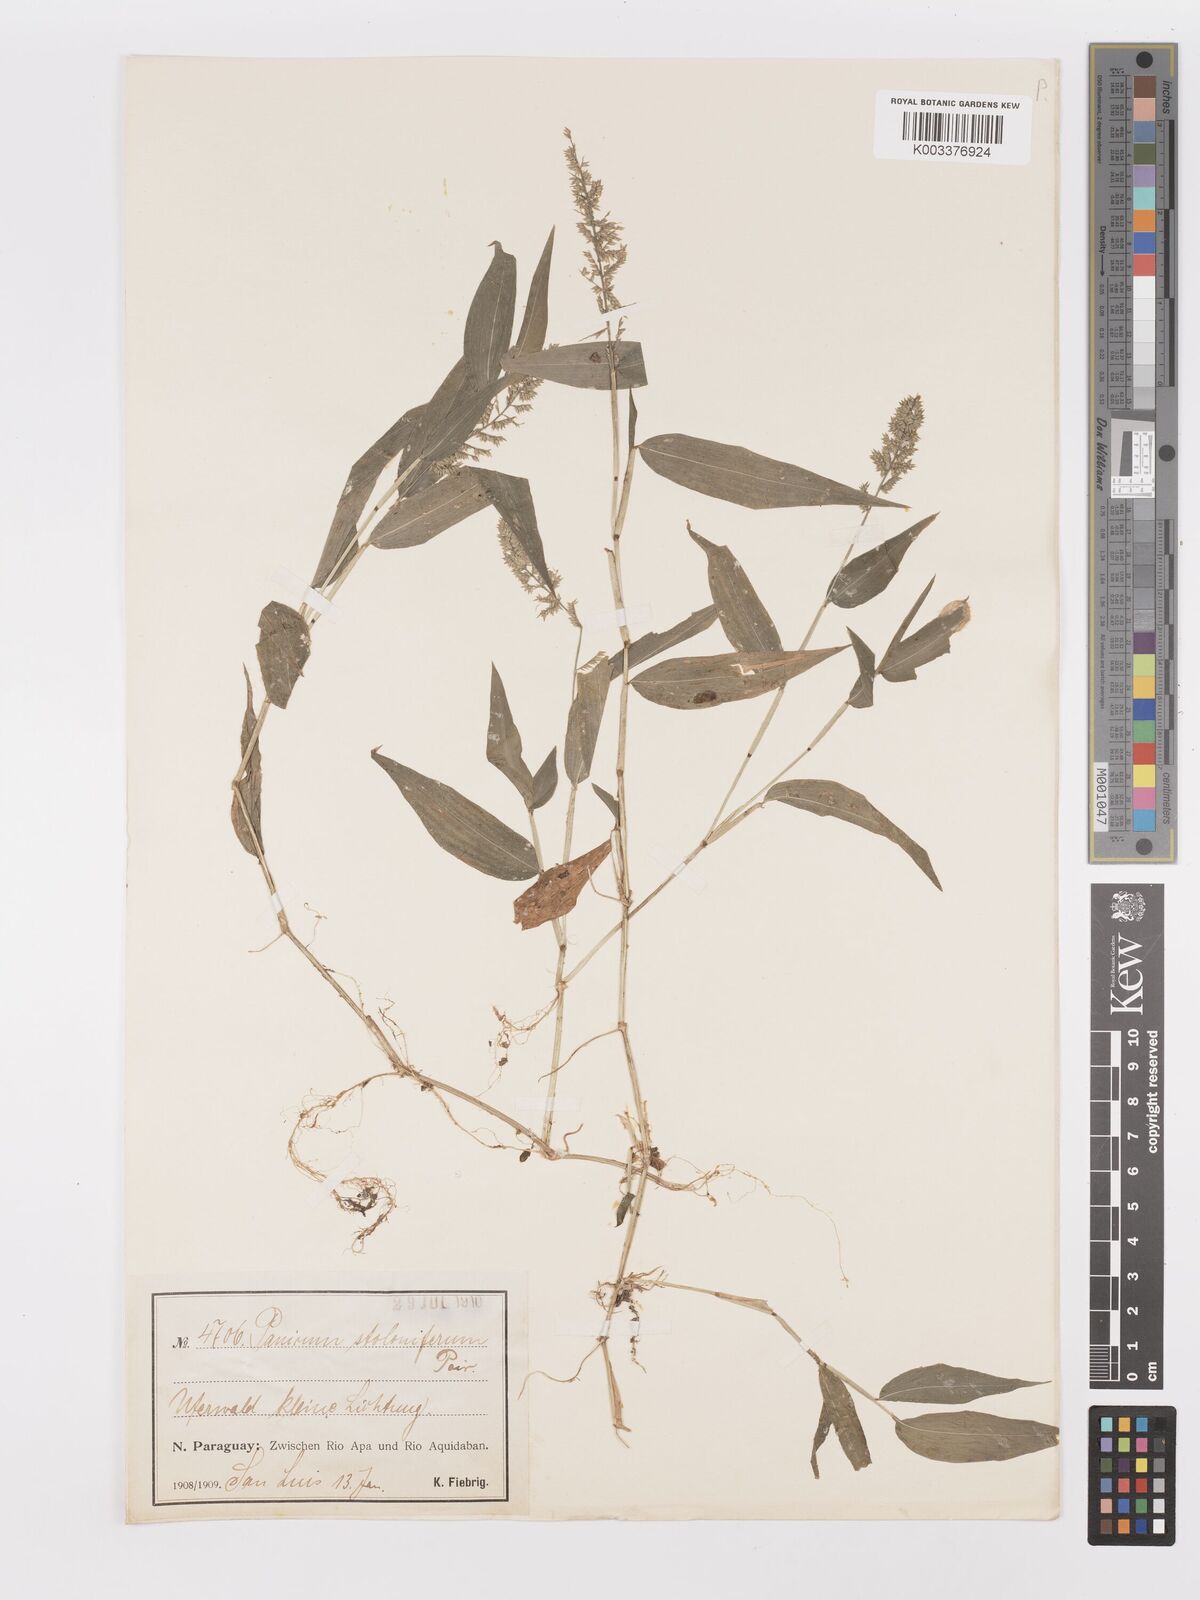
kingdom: Plantae
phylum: Tracheophyta
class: Liliopsida
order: Poales
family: Poaceae
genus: Ocellochloa
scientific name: Ocellochloa stolonifera
